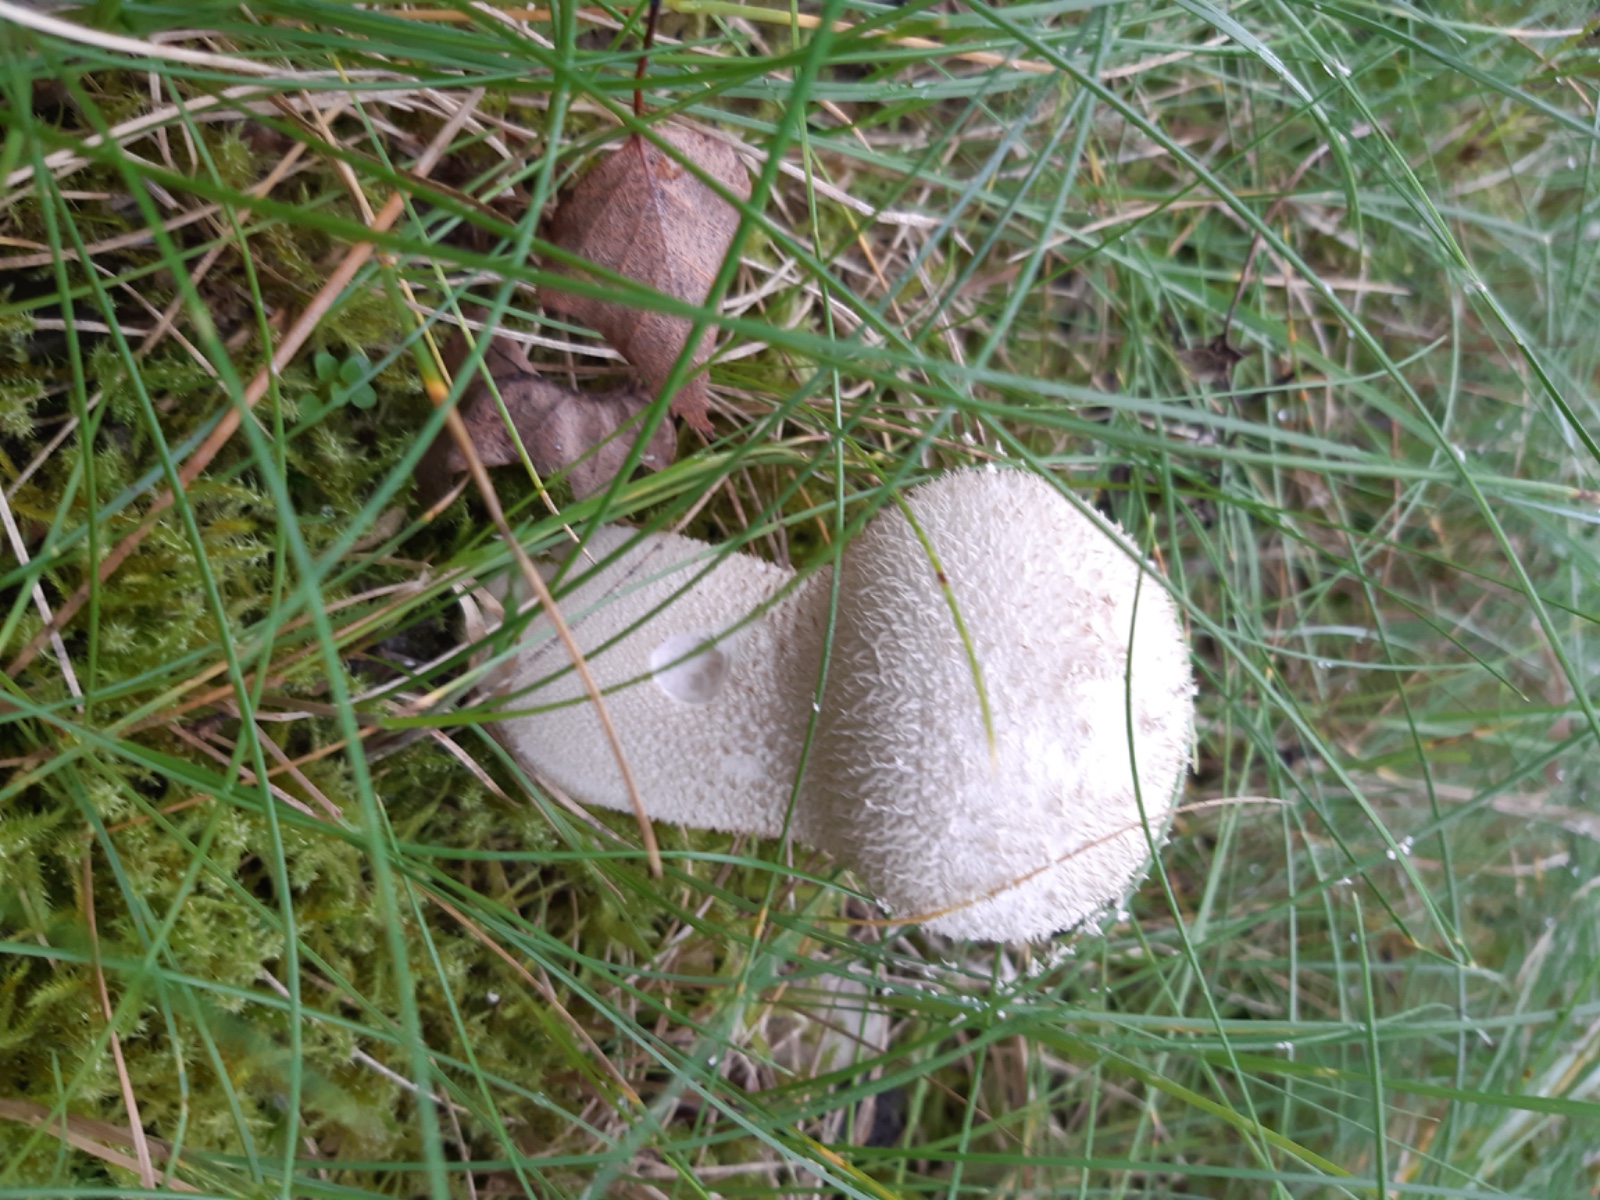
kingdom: Fungi
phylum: Basidiomycota
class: Agaricomycetes
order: Agaricales
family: Lycoperdaceae
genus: Lycoperdon
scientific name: Lycoperdon excipuliforme
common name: højstokket støvbold
